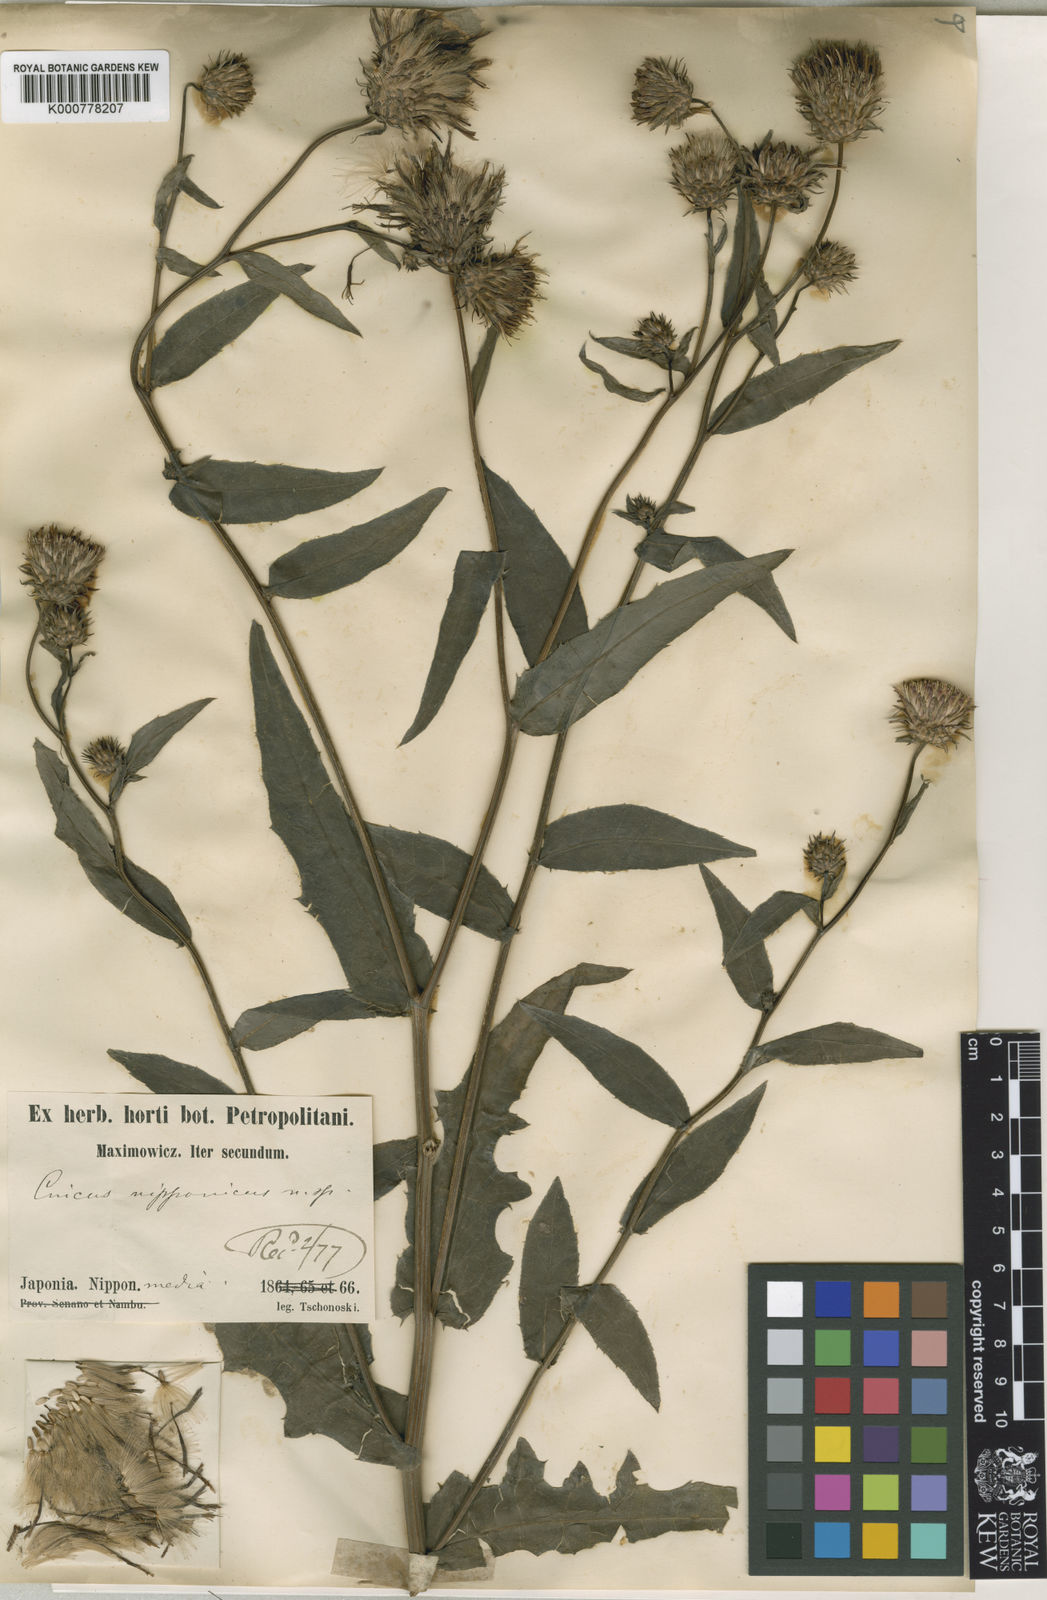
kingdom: Plantae
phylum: Tracheophyta
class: Magnoliopsida
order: Asterales
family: Asteraceae
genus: Cirsium
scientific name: Cirsium nipponicum
